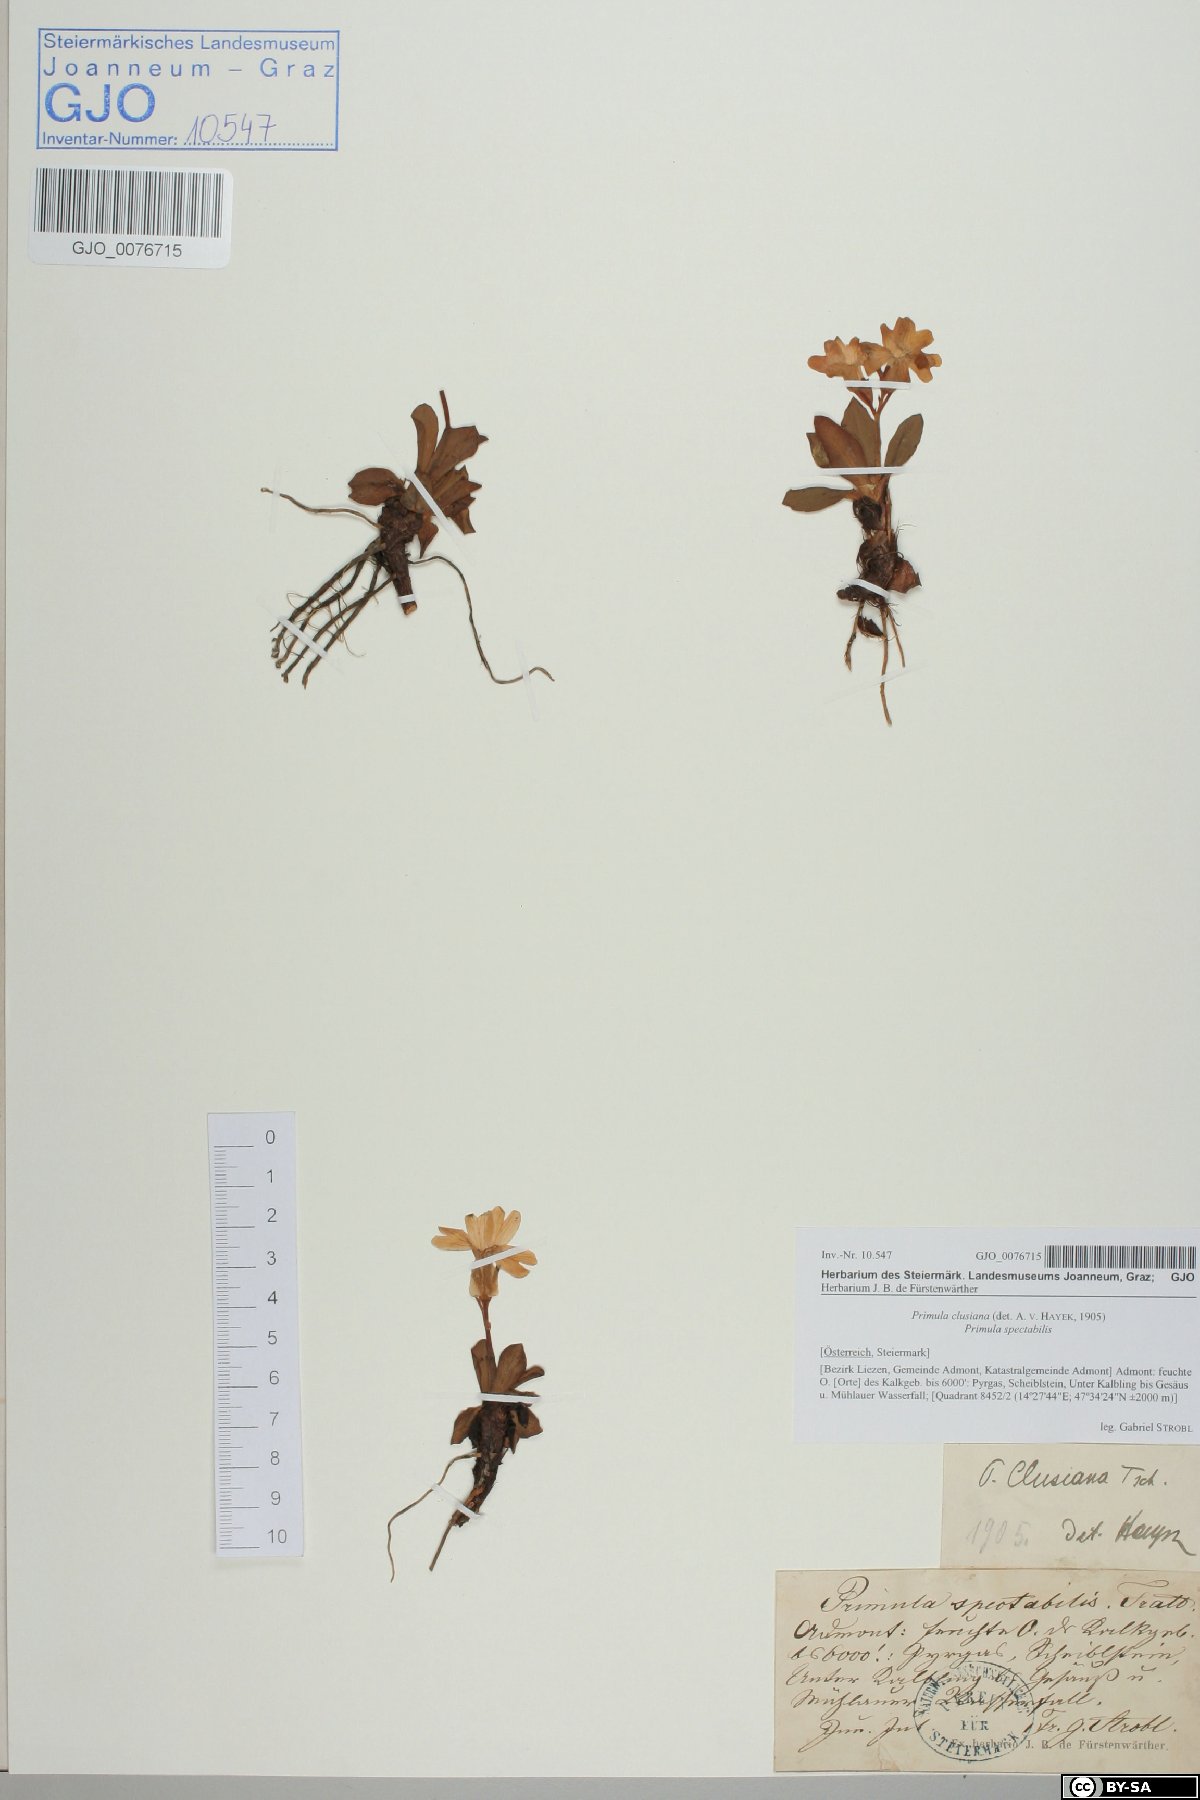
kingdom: Plantae
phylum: Tracheophyta
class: Magnoliopsida
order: Ericales
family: Primulaceae
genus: Primula
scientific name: Primula clusiana
